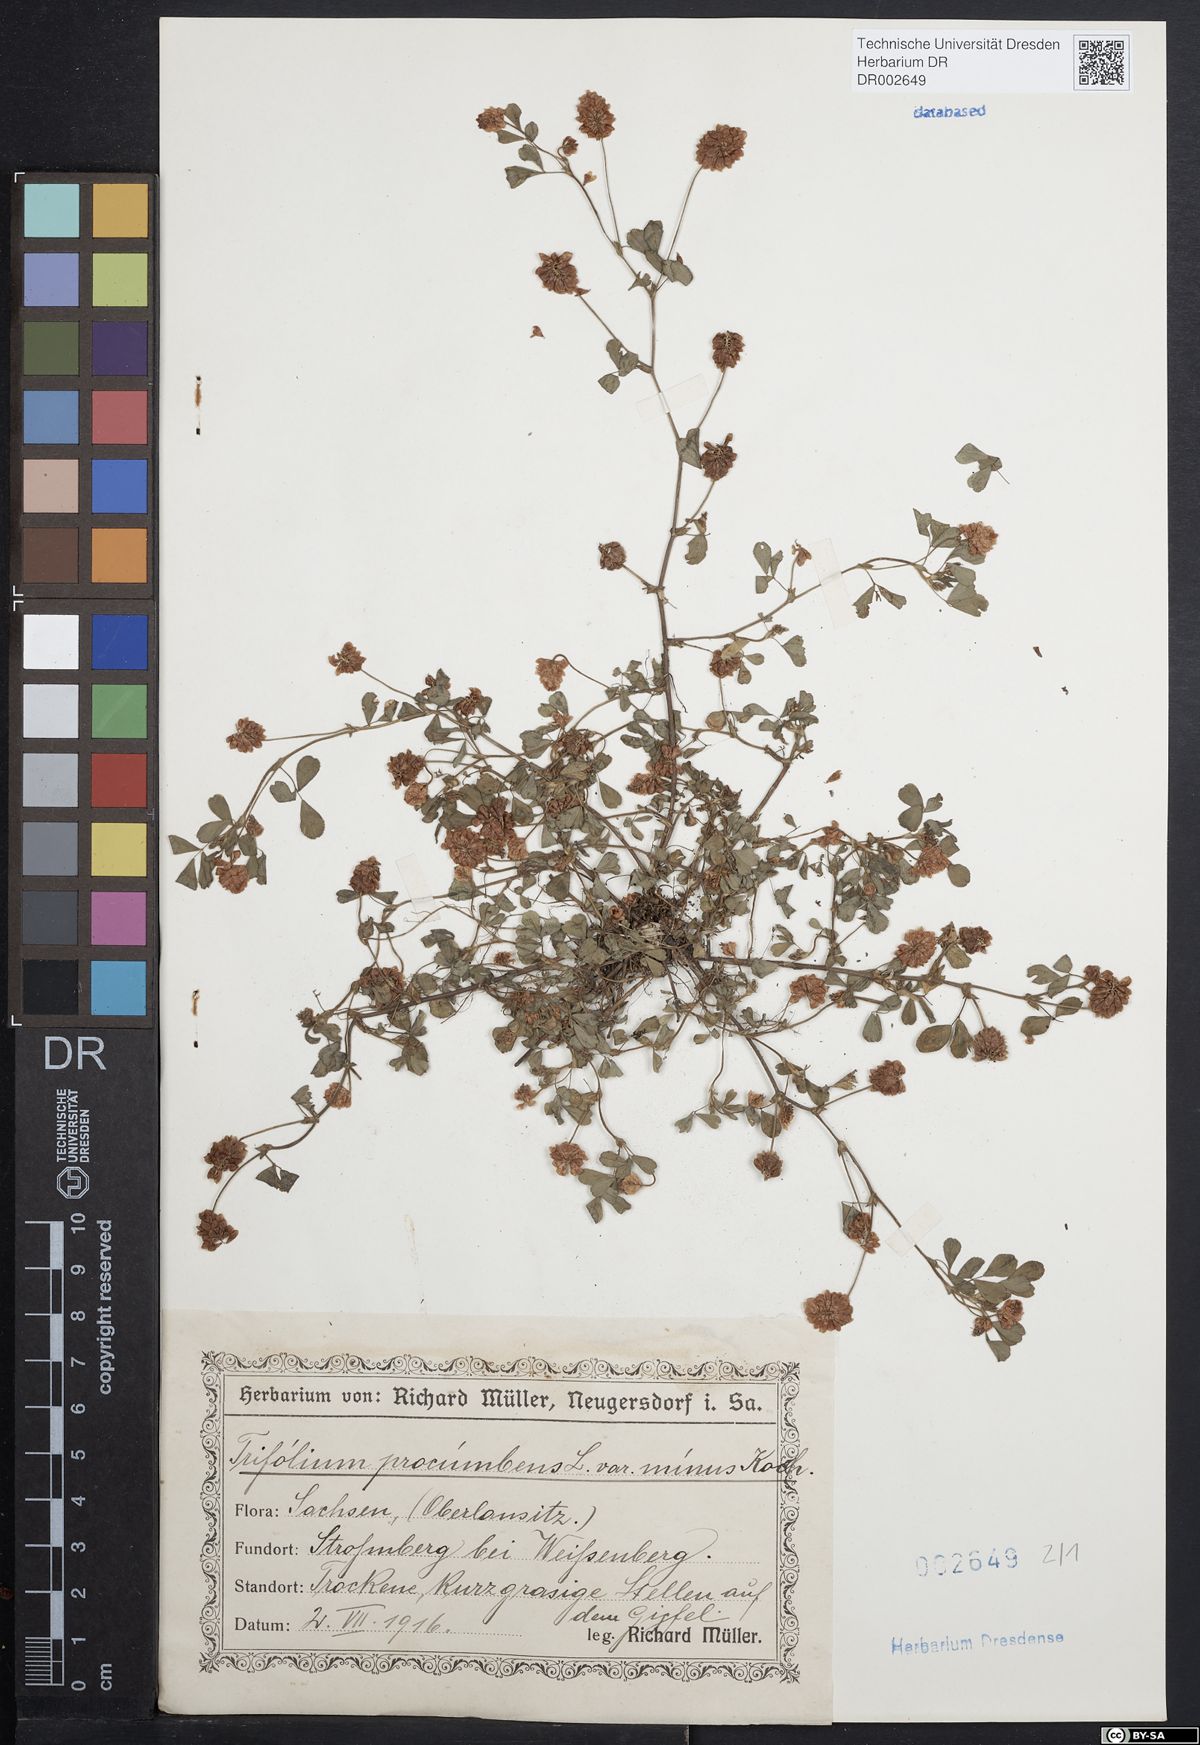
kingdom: Plantae
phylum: Tracheophyta
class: Magnoliopsida
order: Fabales
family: Fabaceae
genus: Trifolium
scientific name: Trifolium campestre
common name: Field clover
